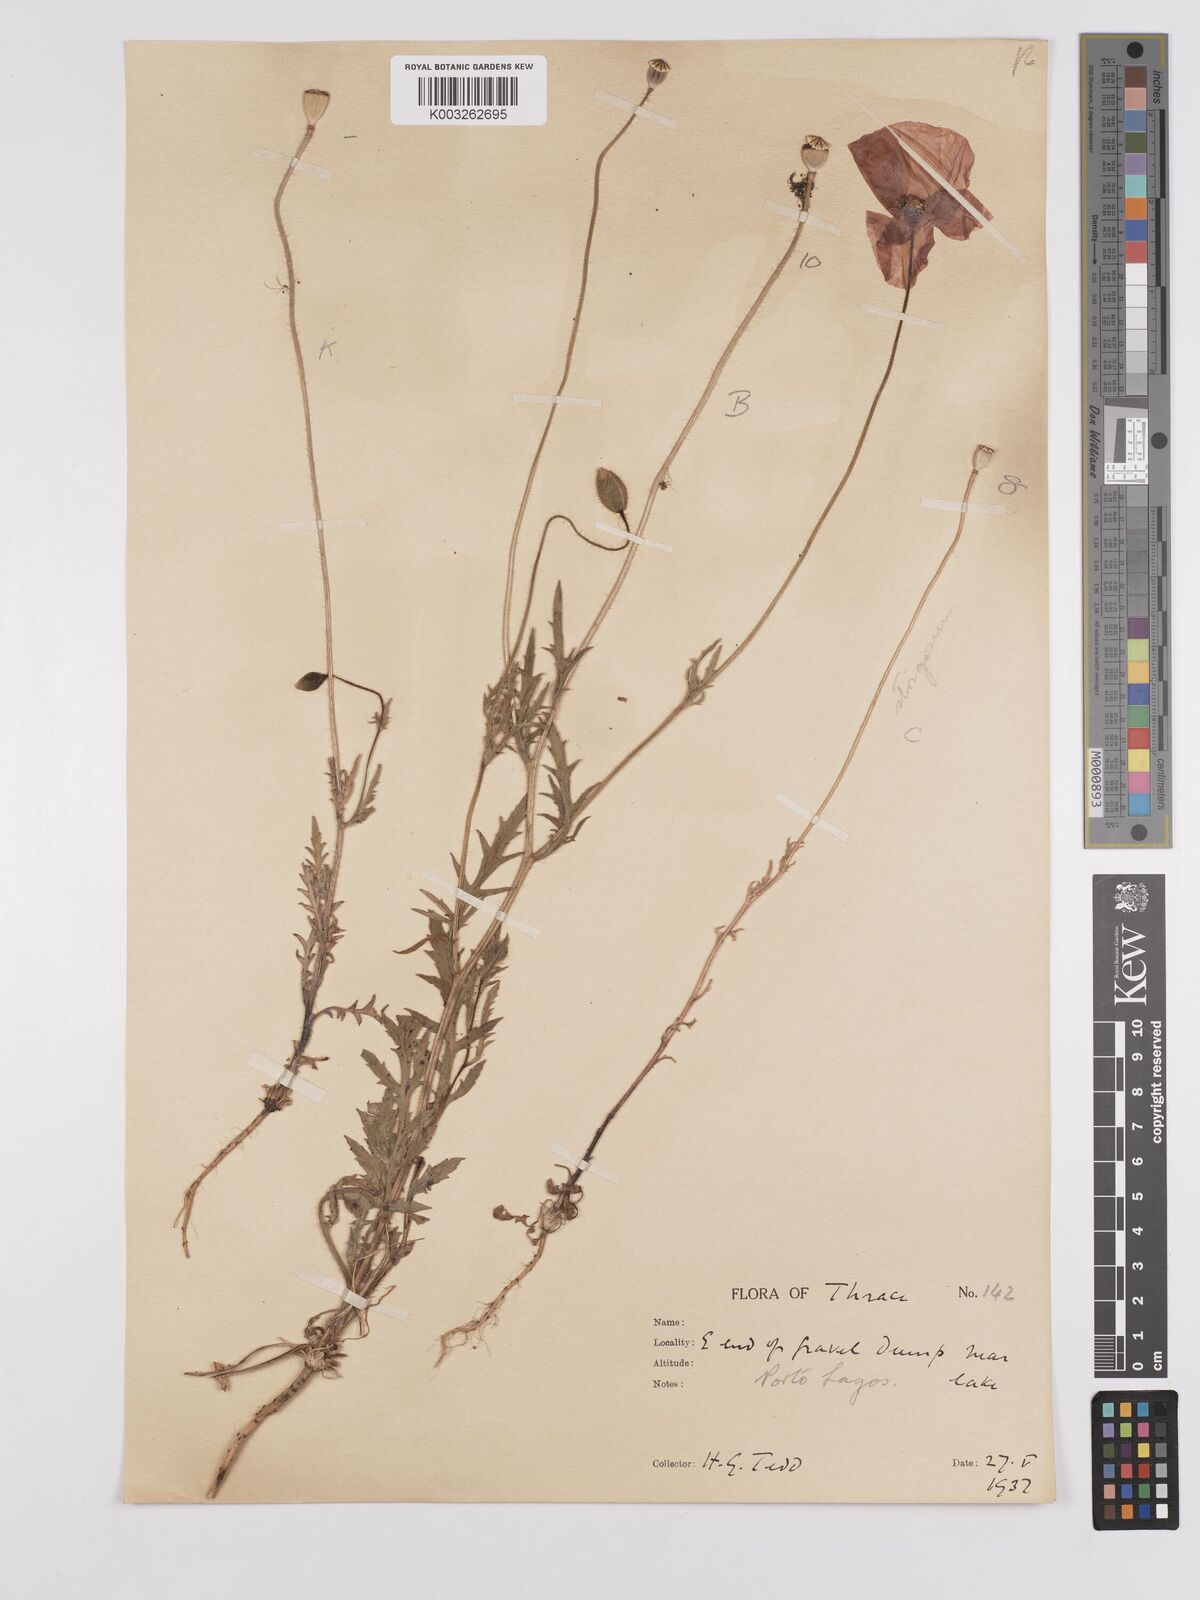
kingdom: Plantae
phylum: Tracheophyta
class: Magnoliopsida
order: Ranunculales
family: Papaveraceae
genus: Papaver
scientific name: Papaver
